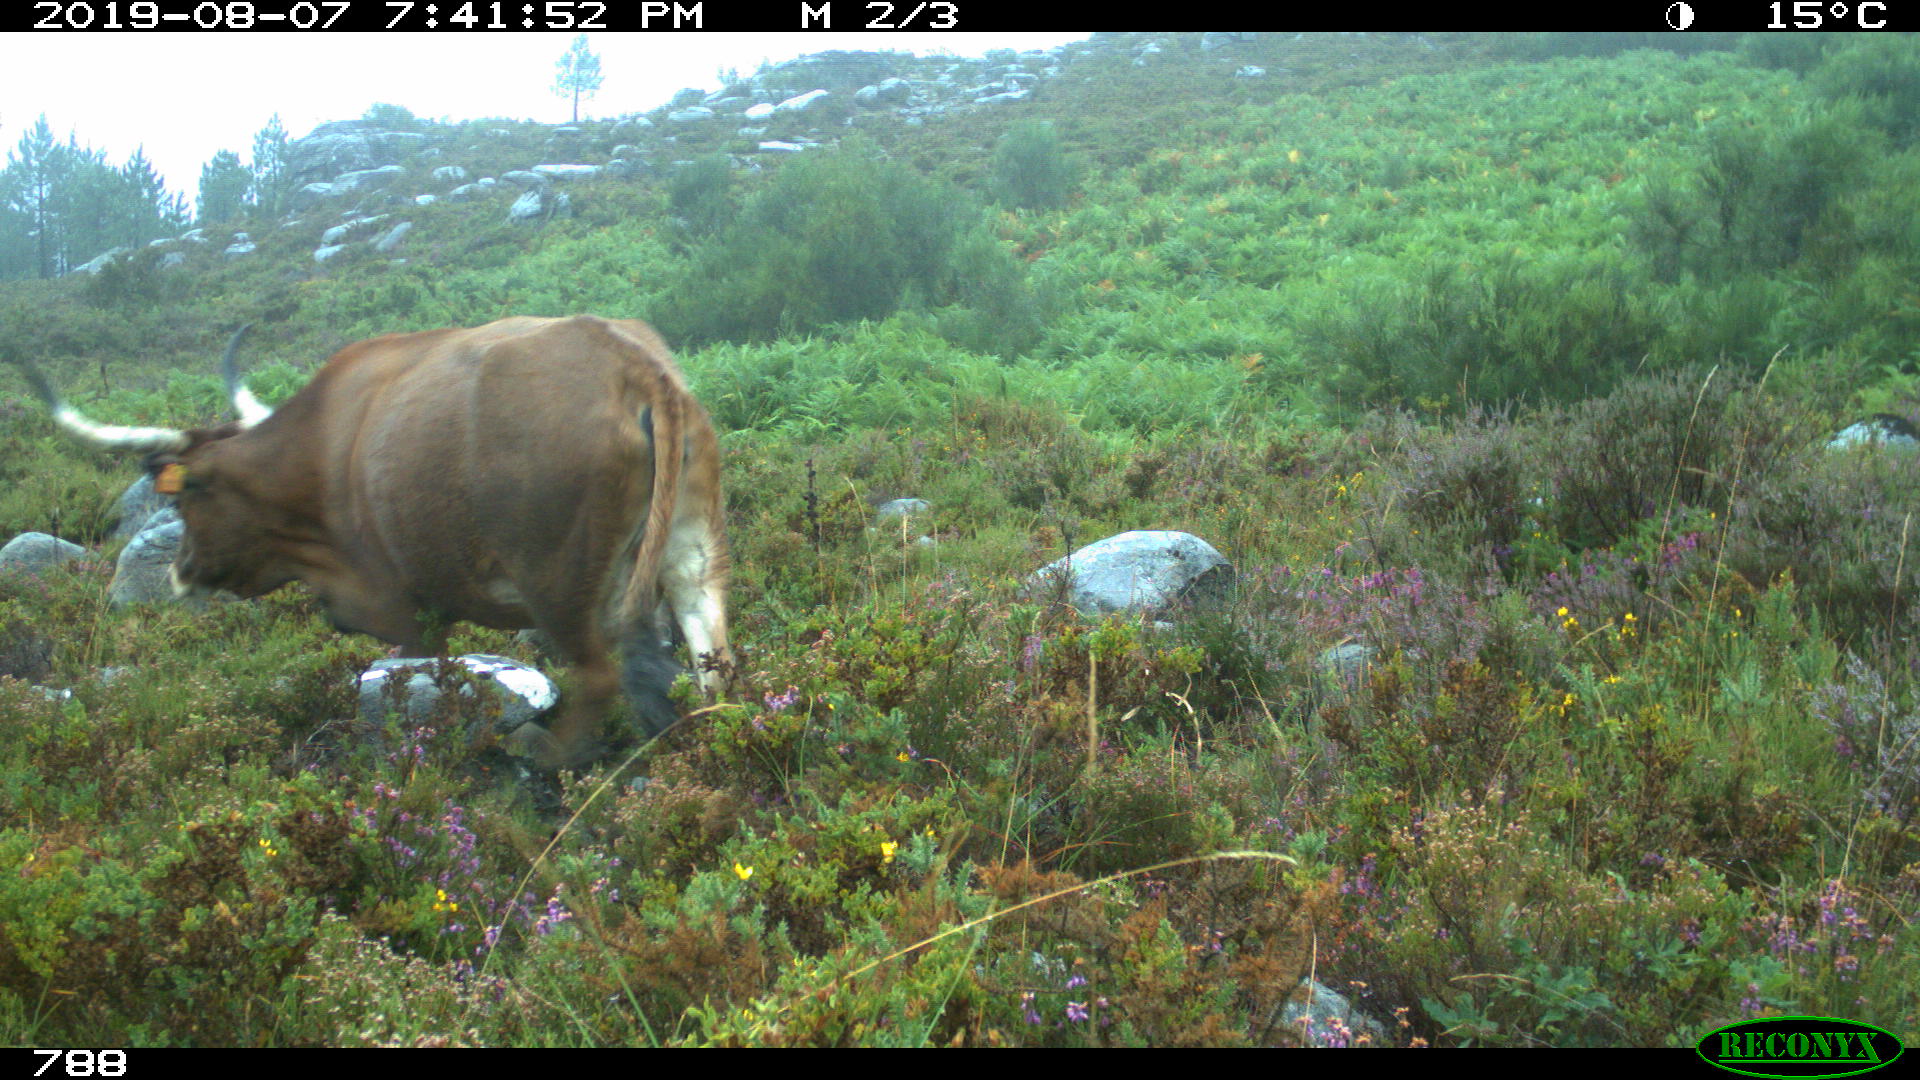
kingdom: Animalia
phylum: Chordata
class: Mammalia
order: Artiodactyla
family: Bovidae
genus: Bos
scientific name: Bos taurus
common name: Domesticated cattle
